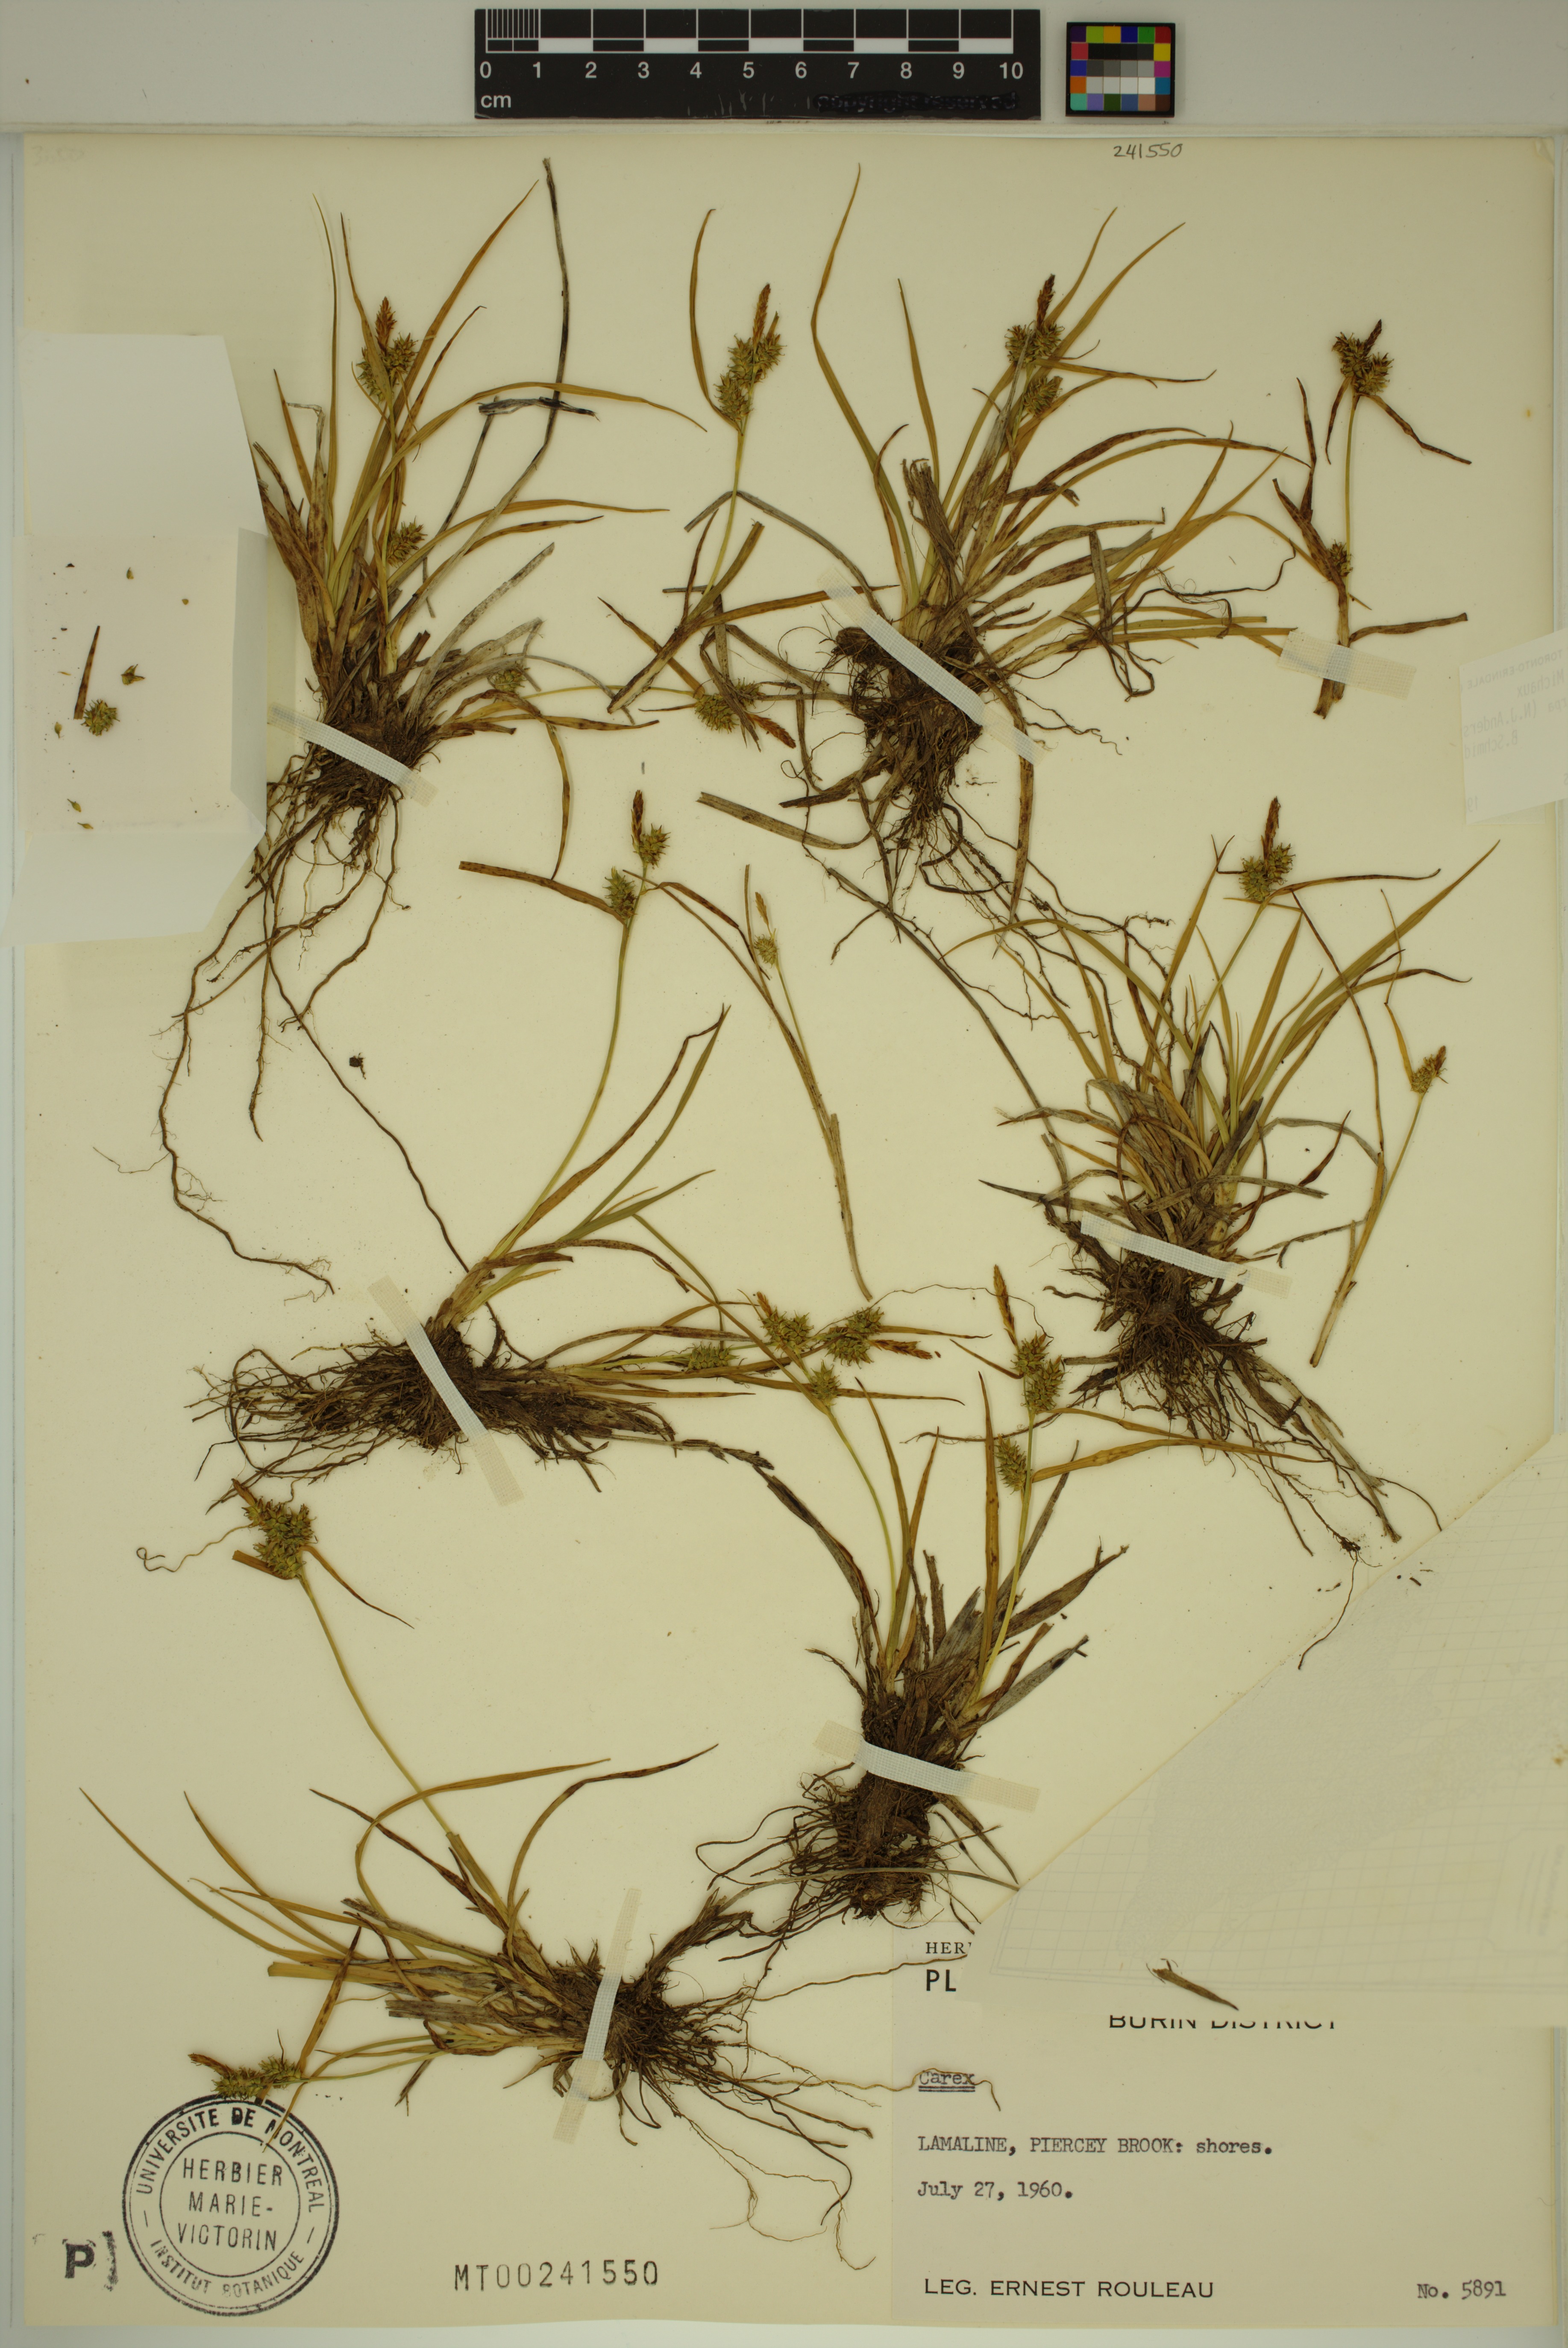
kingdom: Plantae
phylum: Tracheophyta
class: Liliopsida
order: Poales
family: Cyperaceae
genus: Carex
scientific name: Carex demissa
